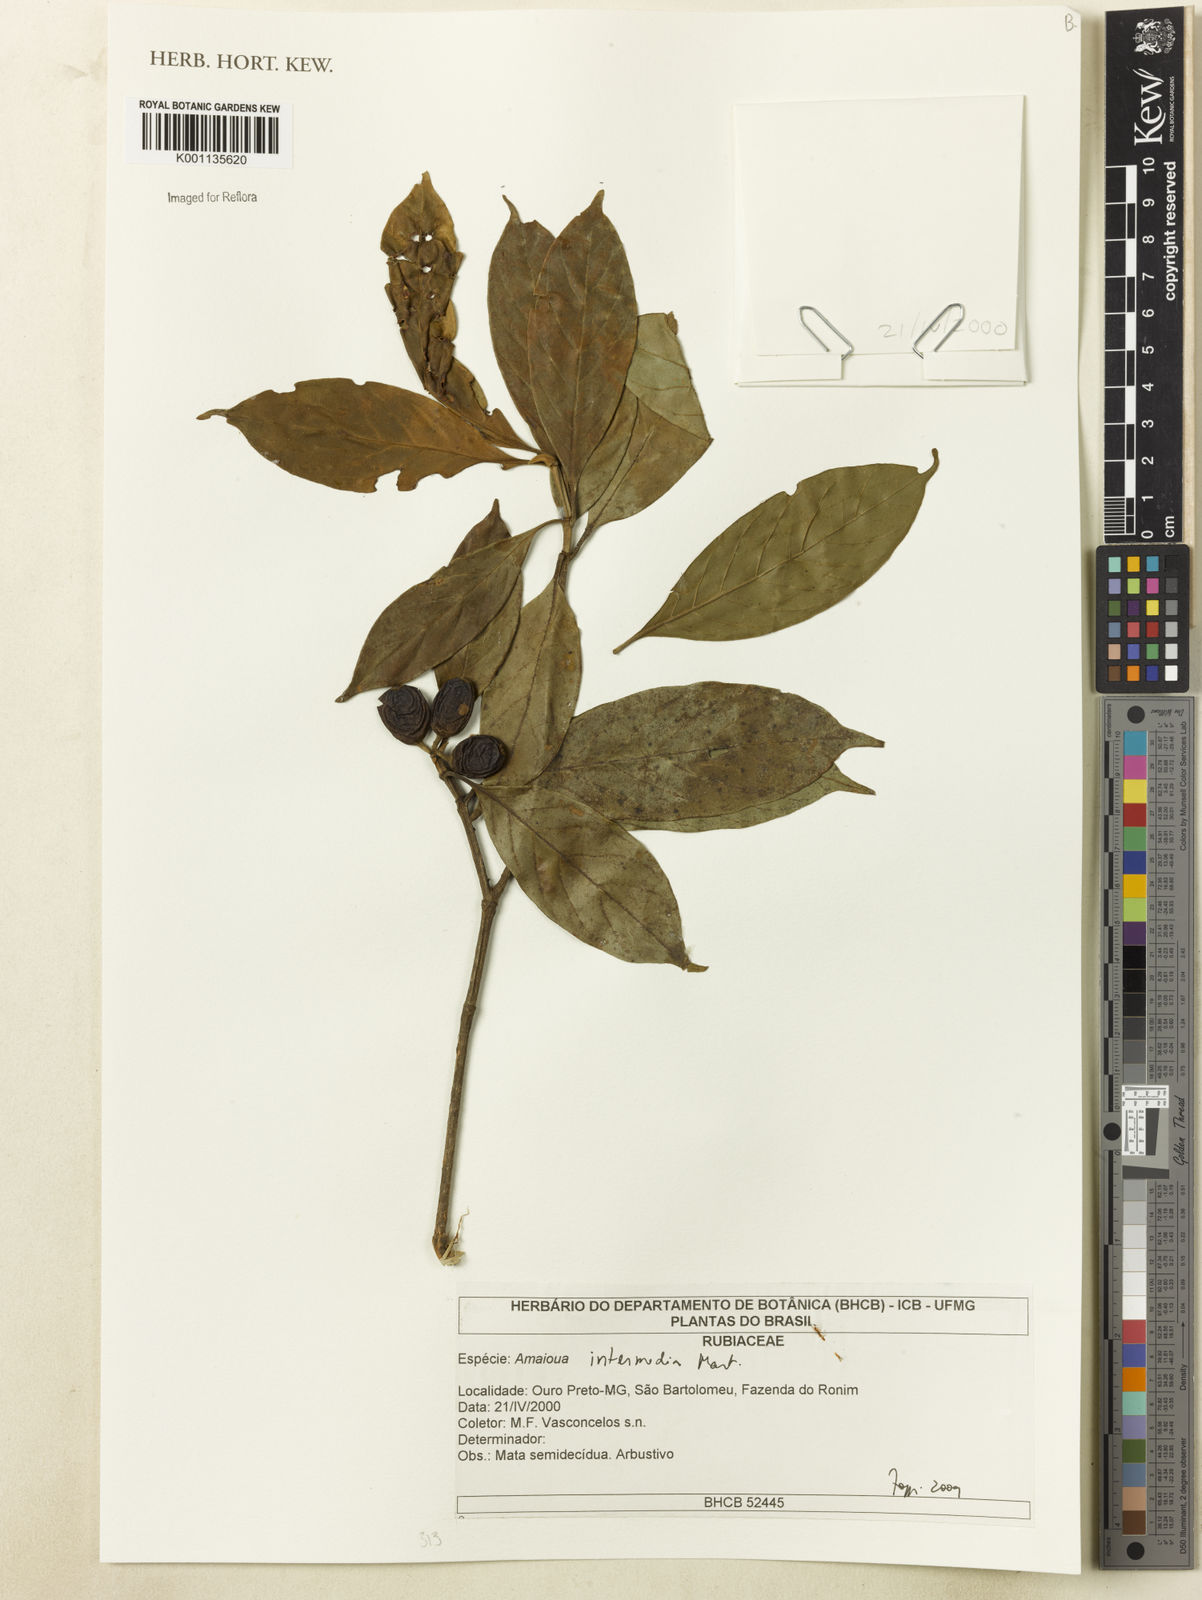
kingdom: Plantae
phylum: Tracheophyta
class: Magnoliopsida
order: Gentianales
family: Rubiaceae
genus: Amaioua
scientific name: Amaioua intermedia
